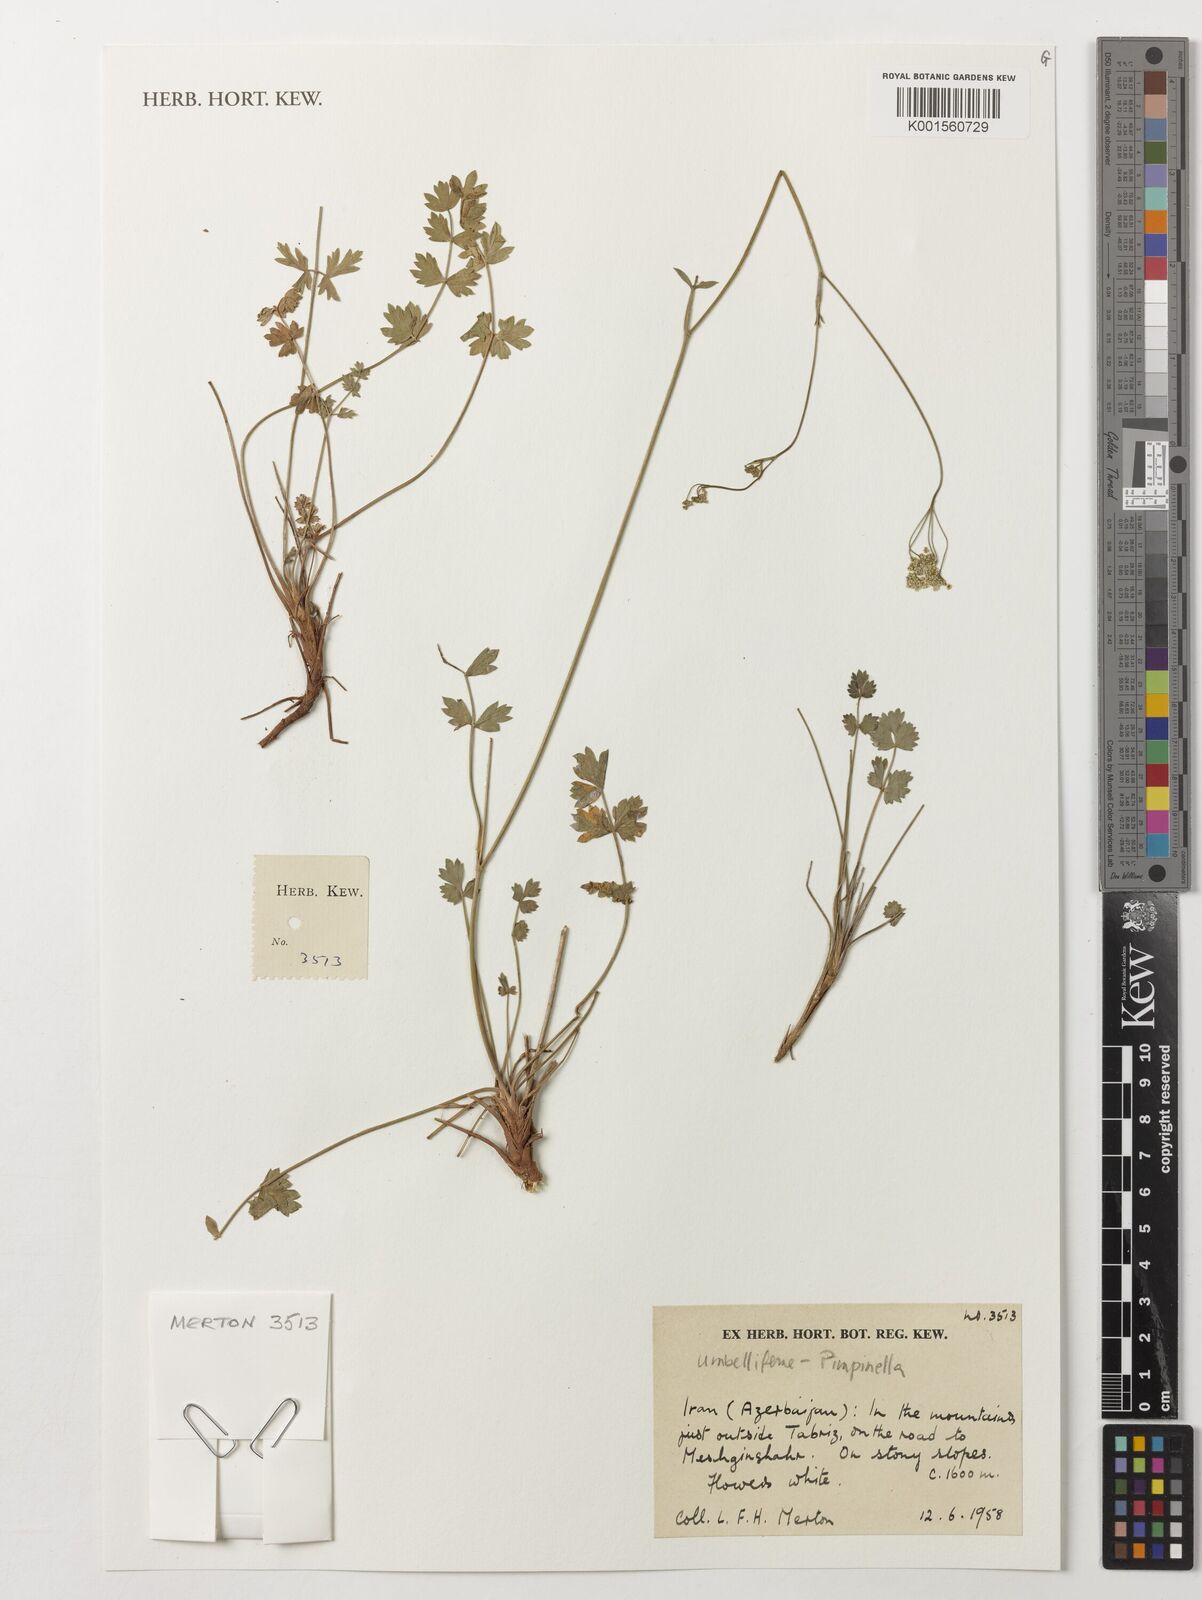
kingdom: Plantae
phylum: Tracheophyta
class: Magnoliopsida
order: Apiales
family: Apiaceae
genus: Umbellifera
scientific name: Umbellifera
